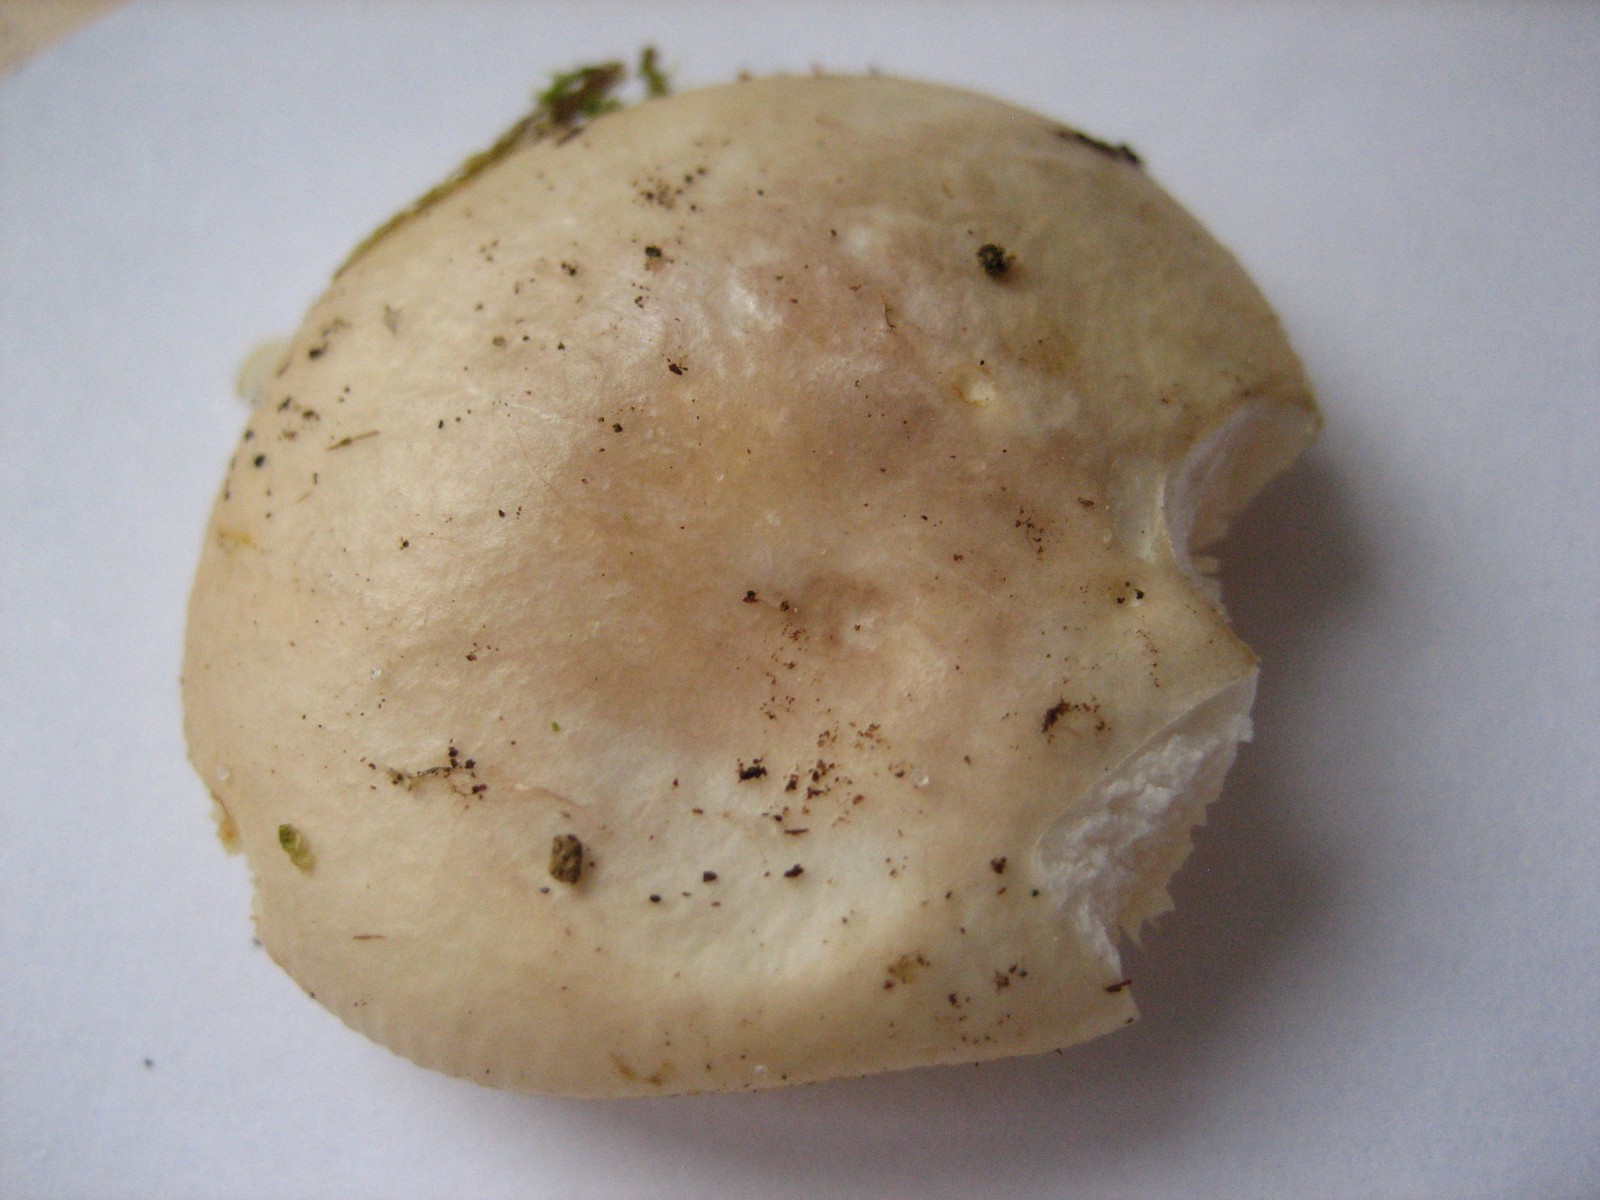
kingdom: Fungi
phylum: Basidiomycota
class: Agaricomycetes
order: Russulales
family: Russulaceae
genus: Russula
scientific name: Russula
